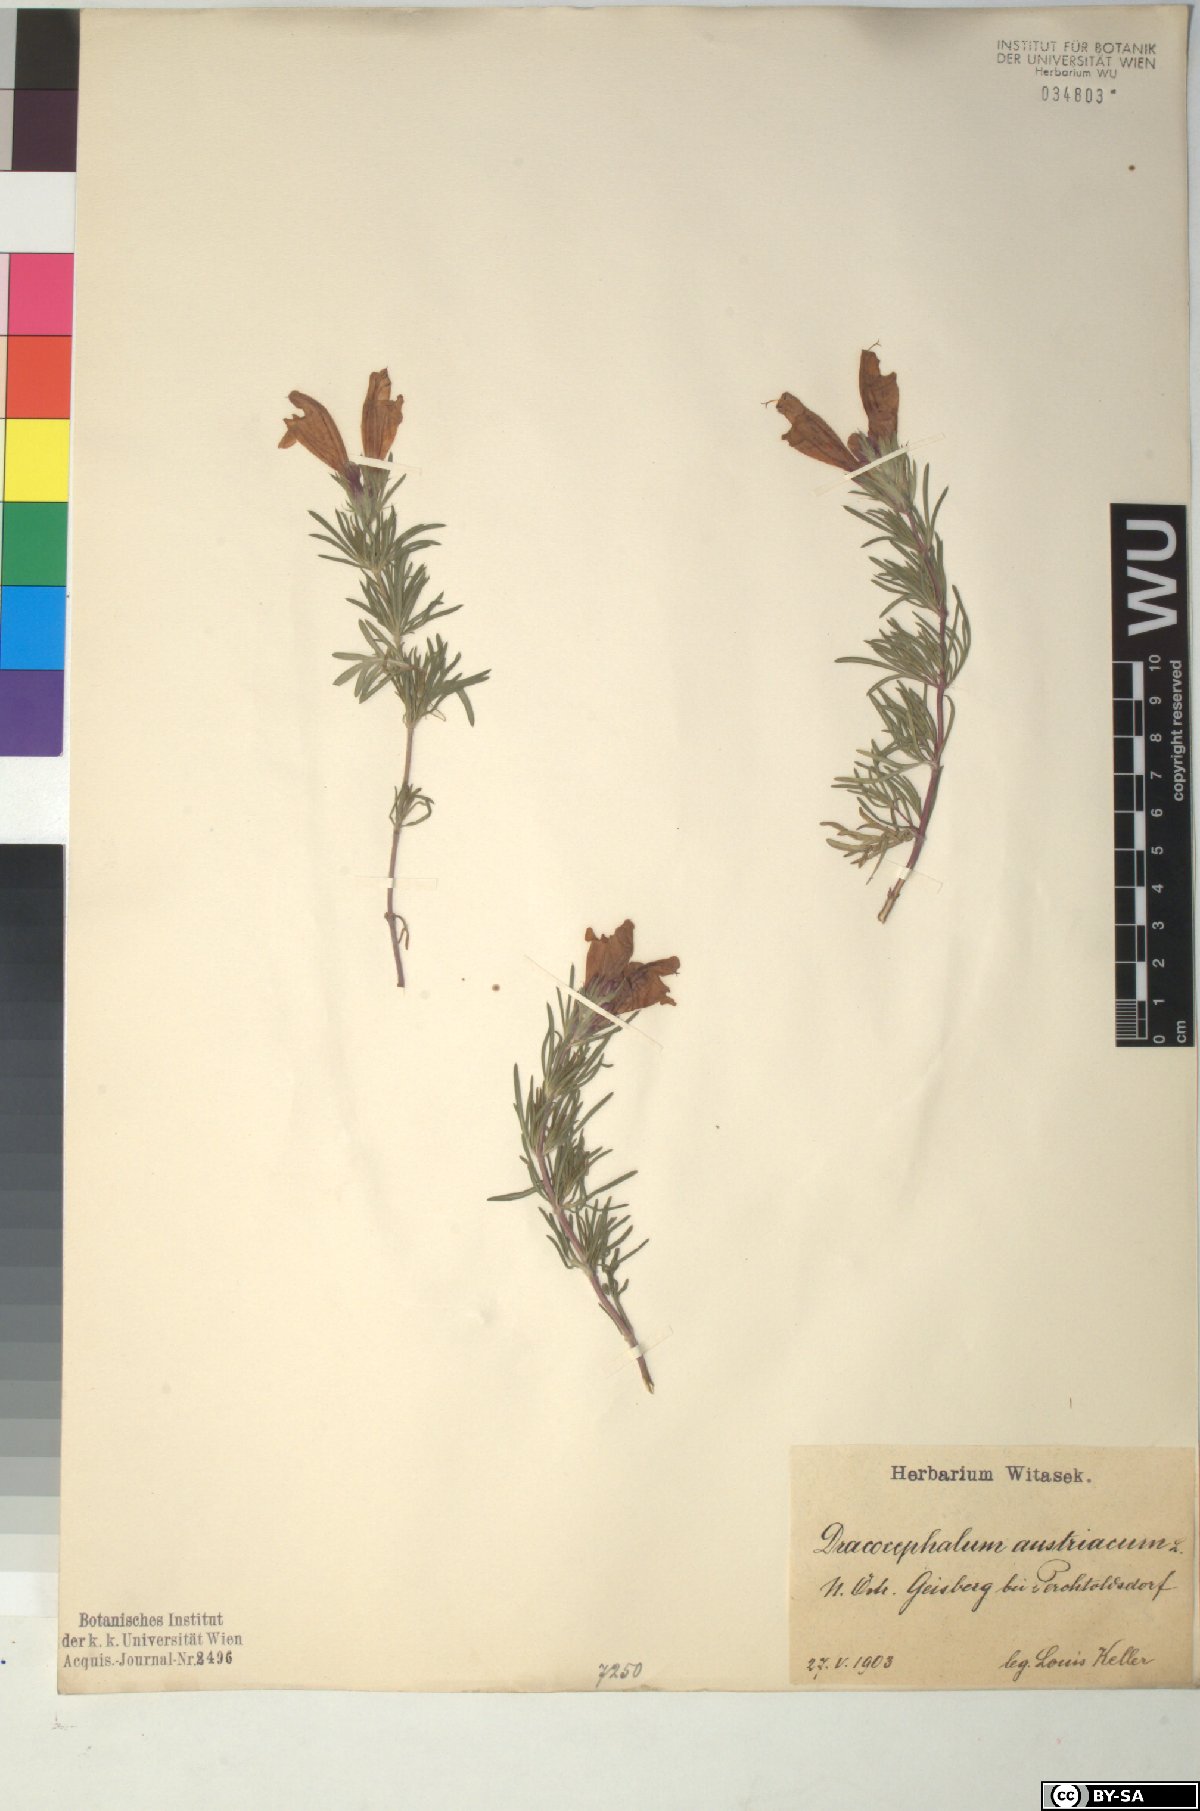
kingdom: Plantae
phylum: Tracheophyta
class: Magnoliopsida
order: Lamiales
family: Lamiaceae
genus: Dracocephalum
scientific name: Dracocephalum austriacum
